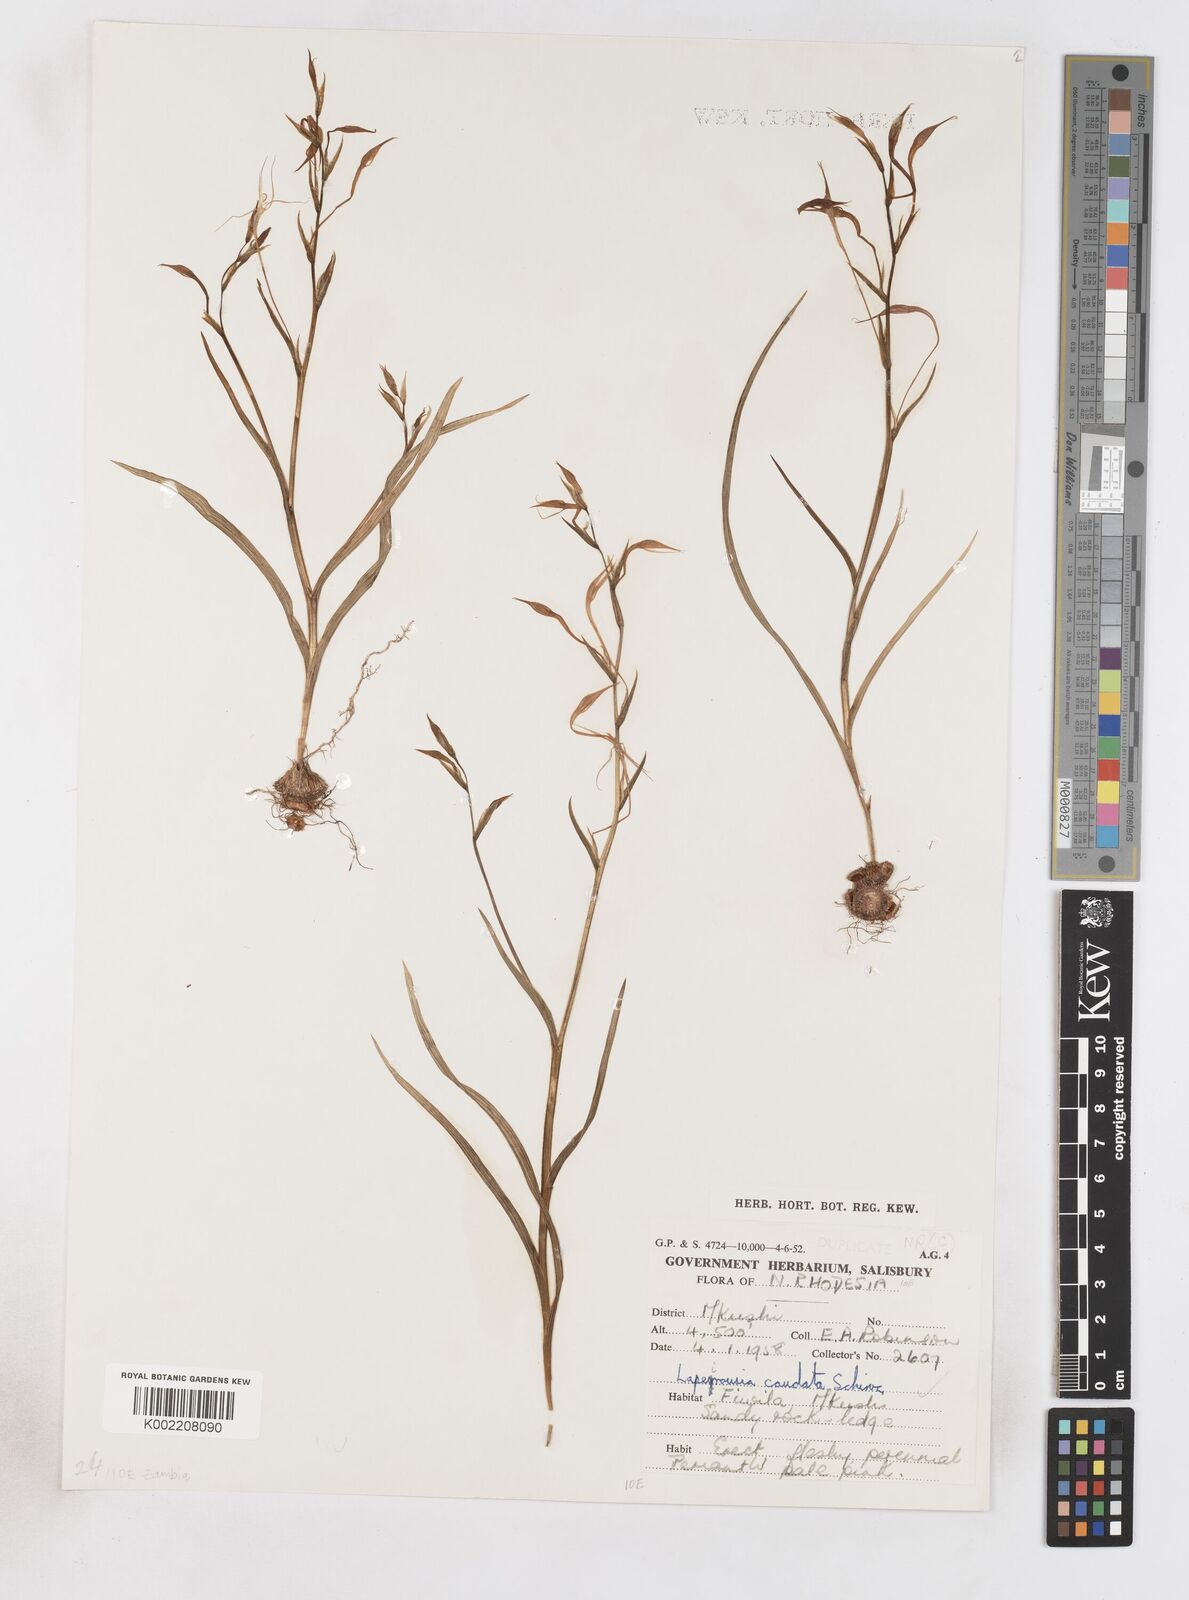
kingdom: Plantae
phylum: Tracheophyta
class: Liliopsida
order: Asparagales
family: Iridaceae
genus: Lapeirousia
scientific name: Lapeirousia caudata
